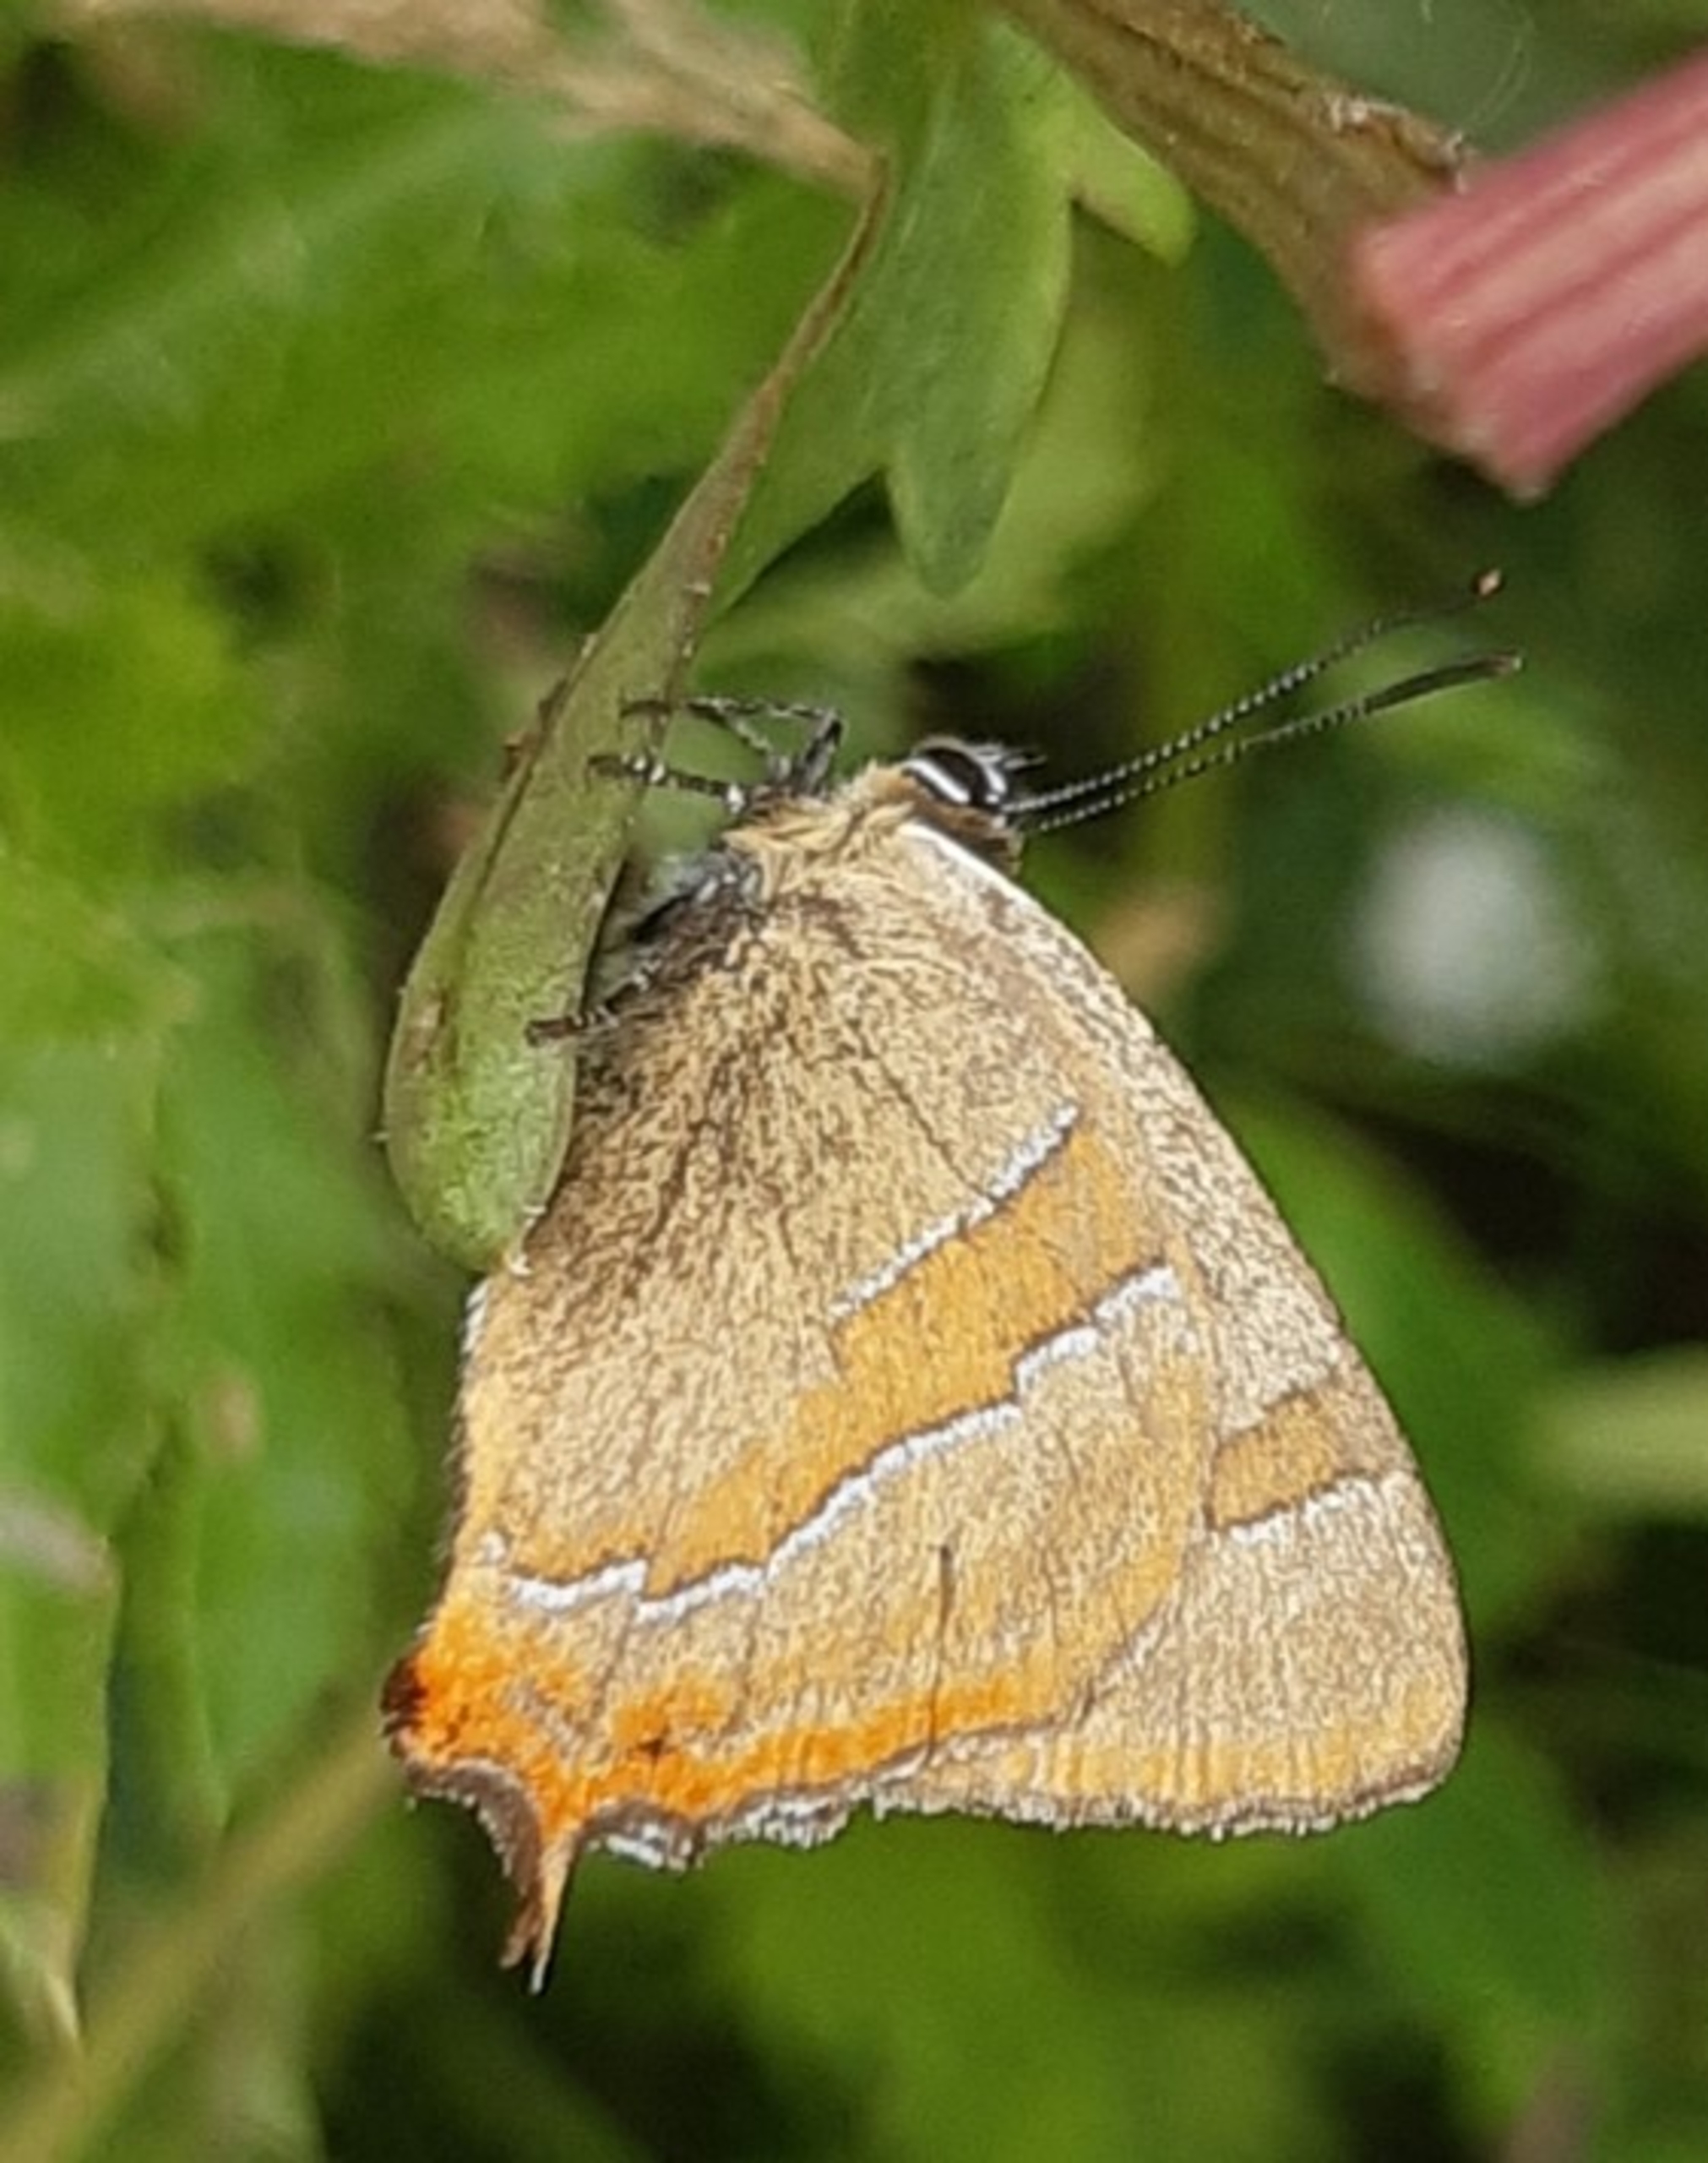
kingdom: Animalia
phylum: Arthropoda
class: Insecta
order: Lepidoptera
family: Lycaenidae
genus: Thecla
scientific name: Thecla betulae
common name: Guldhale
